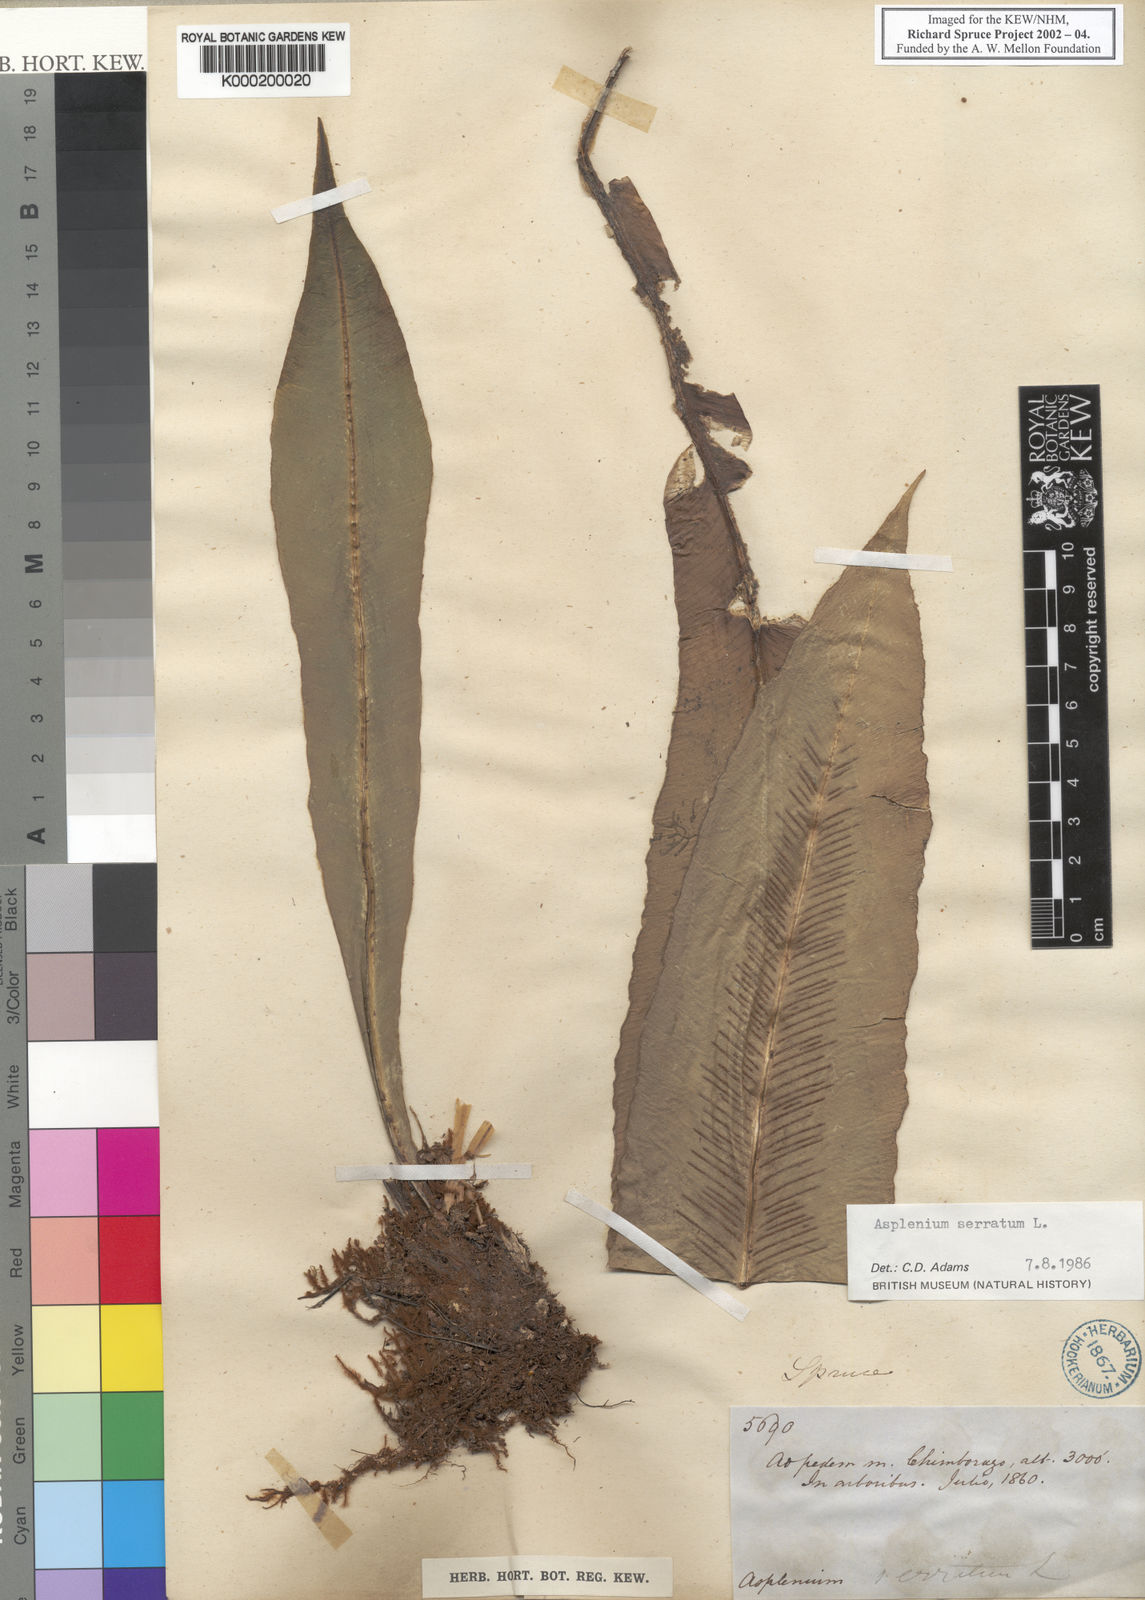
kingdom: Plantae
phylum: Tracheophyta
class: Polypodiopsida
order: Polypodiales
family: Aspleniaceae
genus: Asplenium
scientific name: Asplenium serratum
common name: Wild birdnest fern
